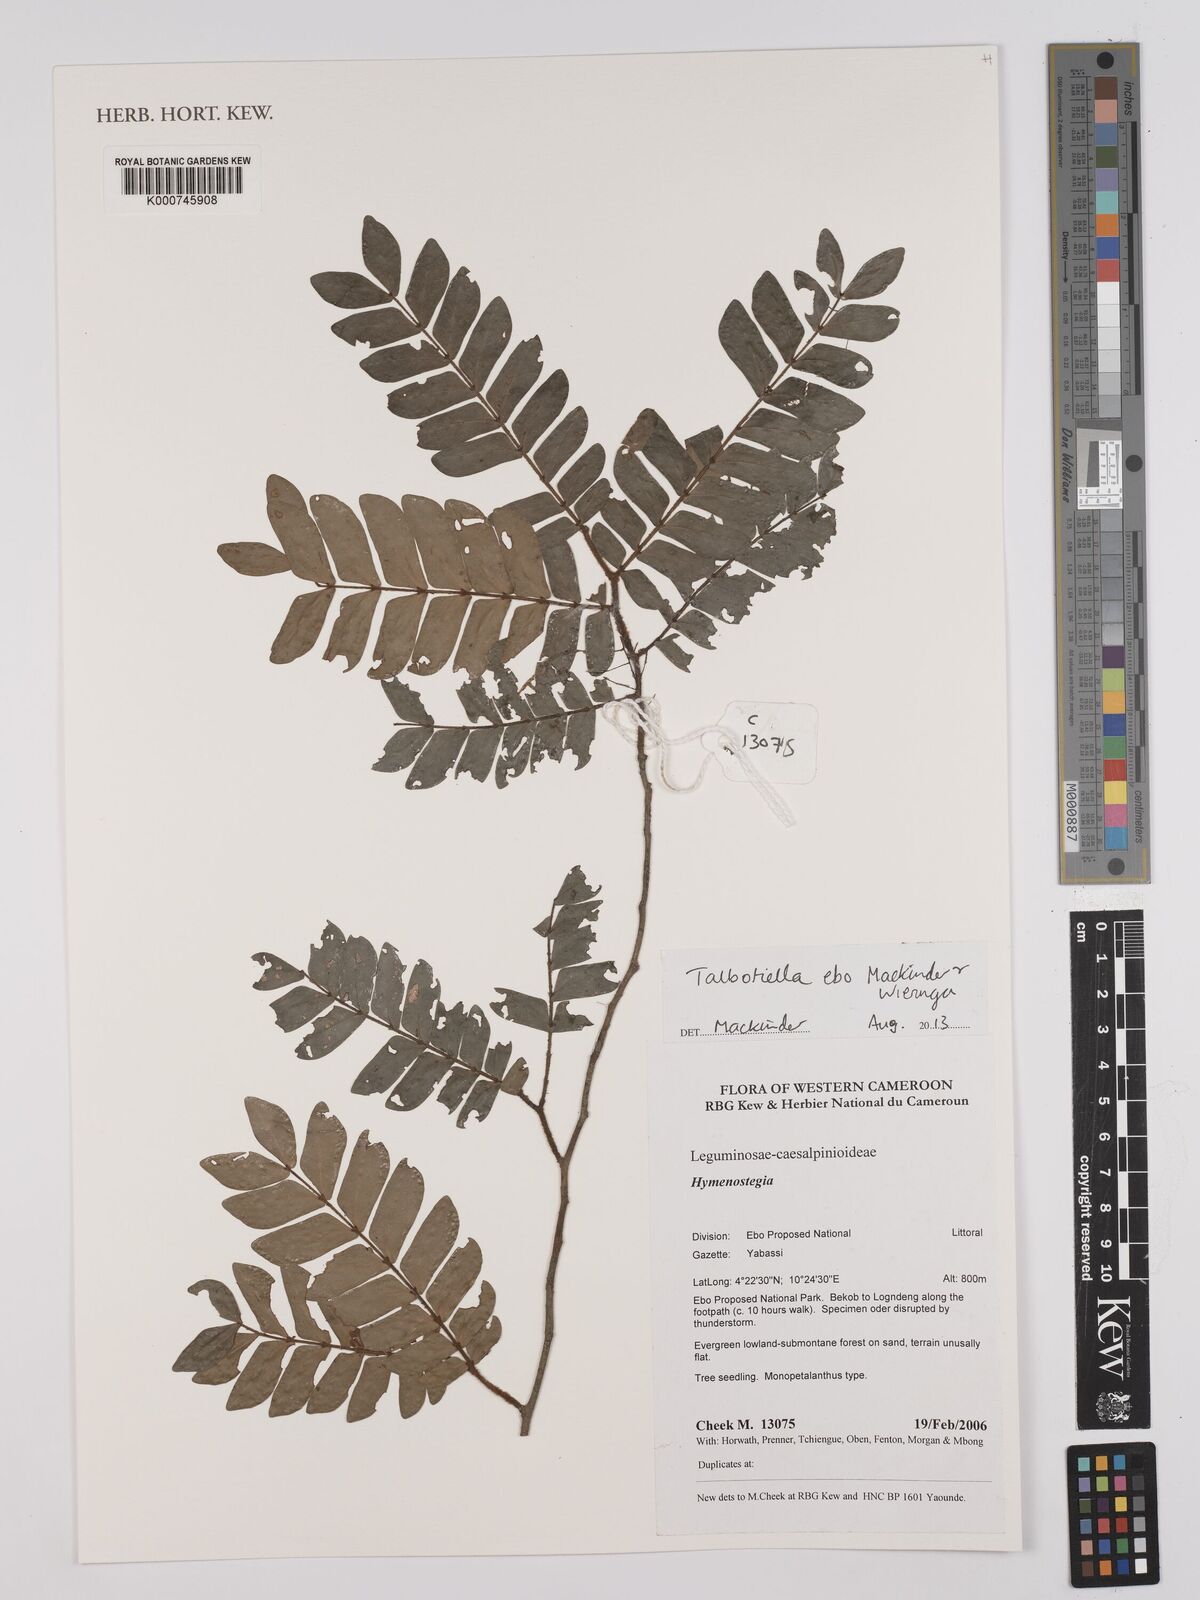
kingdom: Plantae
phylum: Tracheophyta
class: Magnoliopsida
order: Fabales
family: Fabaceae
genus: Talbotiella
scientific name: Talbotiella ebo
